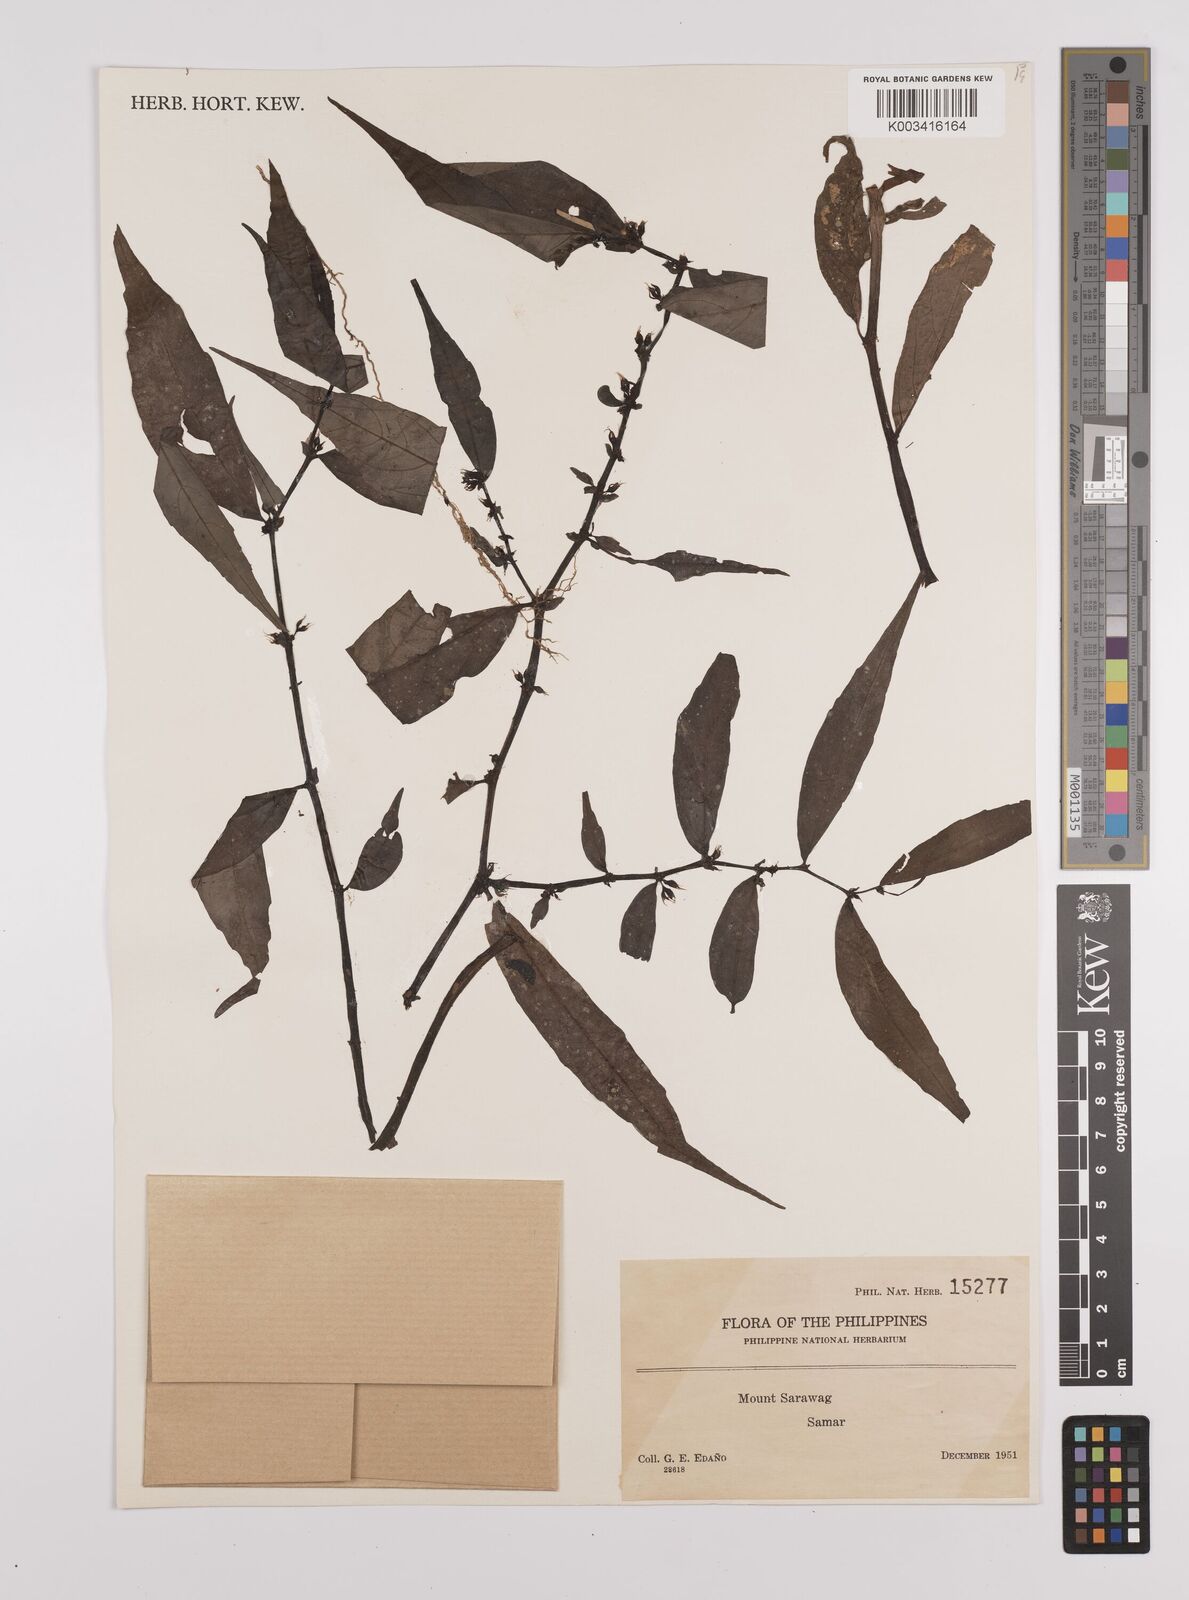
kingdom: Plantae
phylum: Tracheophyta
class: Magnoliopsida
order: Rosales
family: Urticaceae
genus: Elatostema
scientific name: Elatostema
